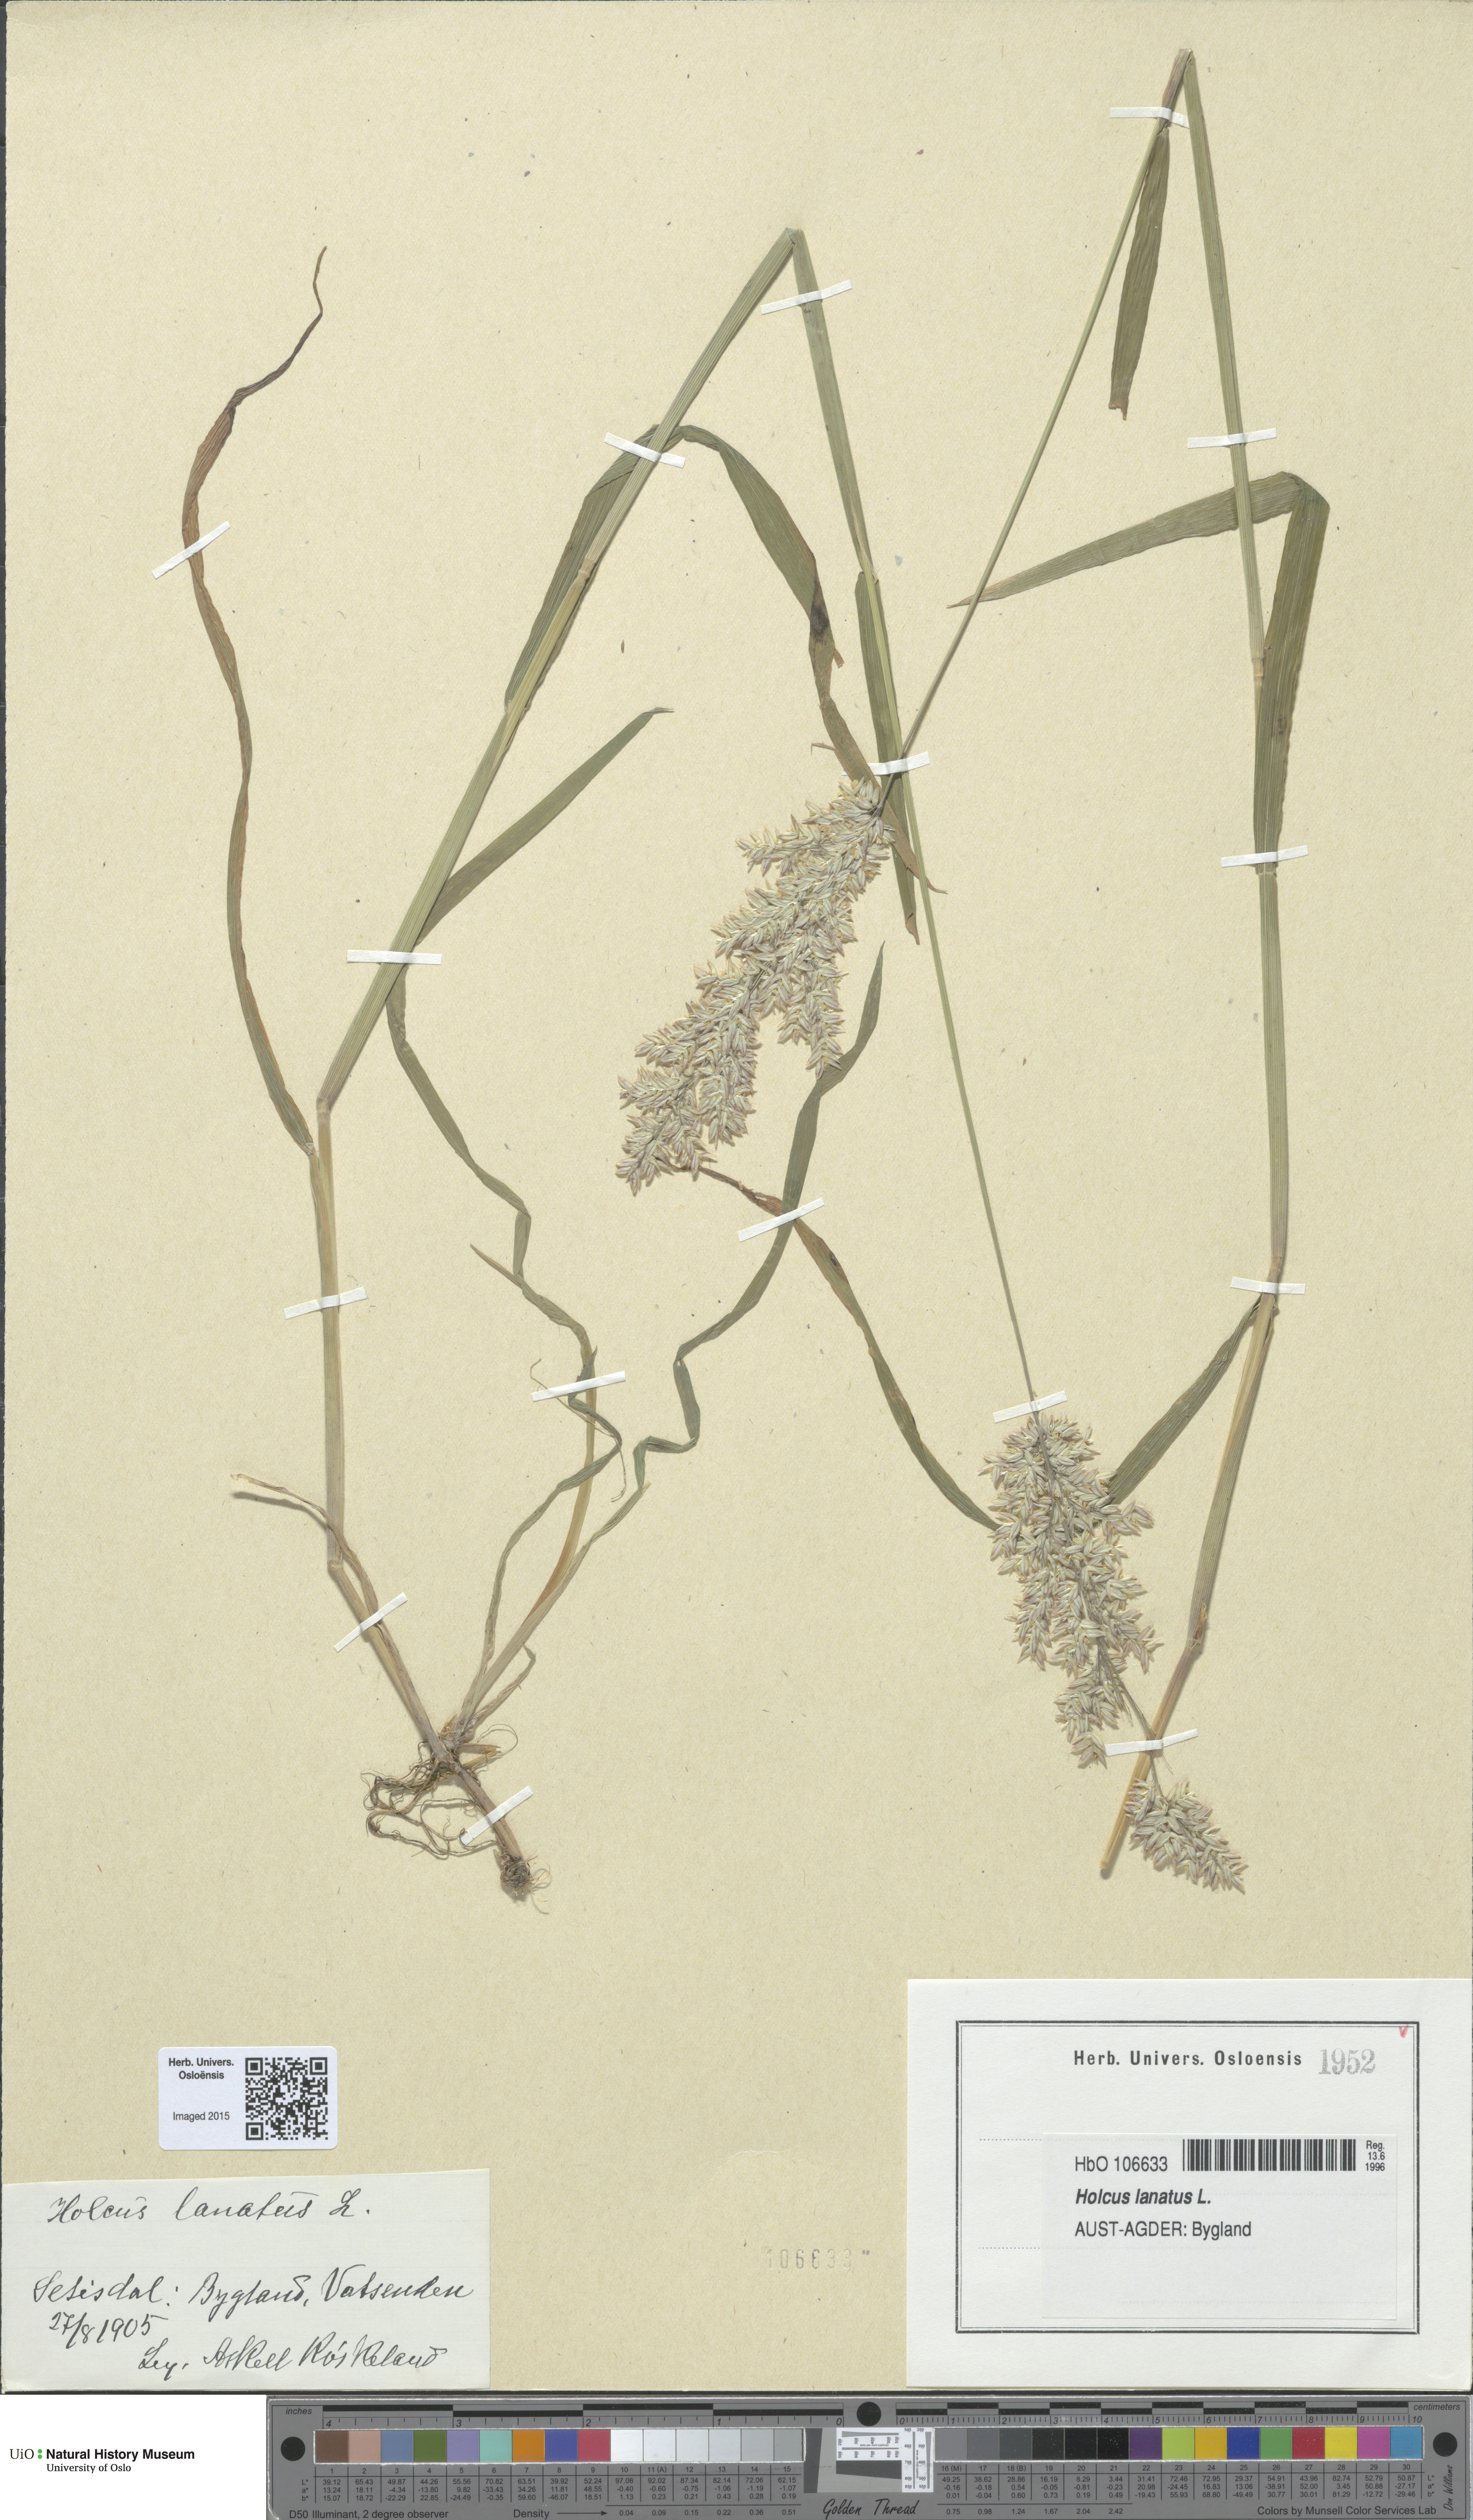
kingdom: Plantae
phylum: Tracheophyta
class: Liliopsida
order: Poales
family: Poaceae
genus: Holcus
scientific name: Holcus lanatus
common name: Yorkshire-fog
